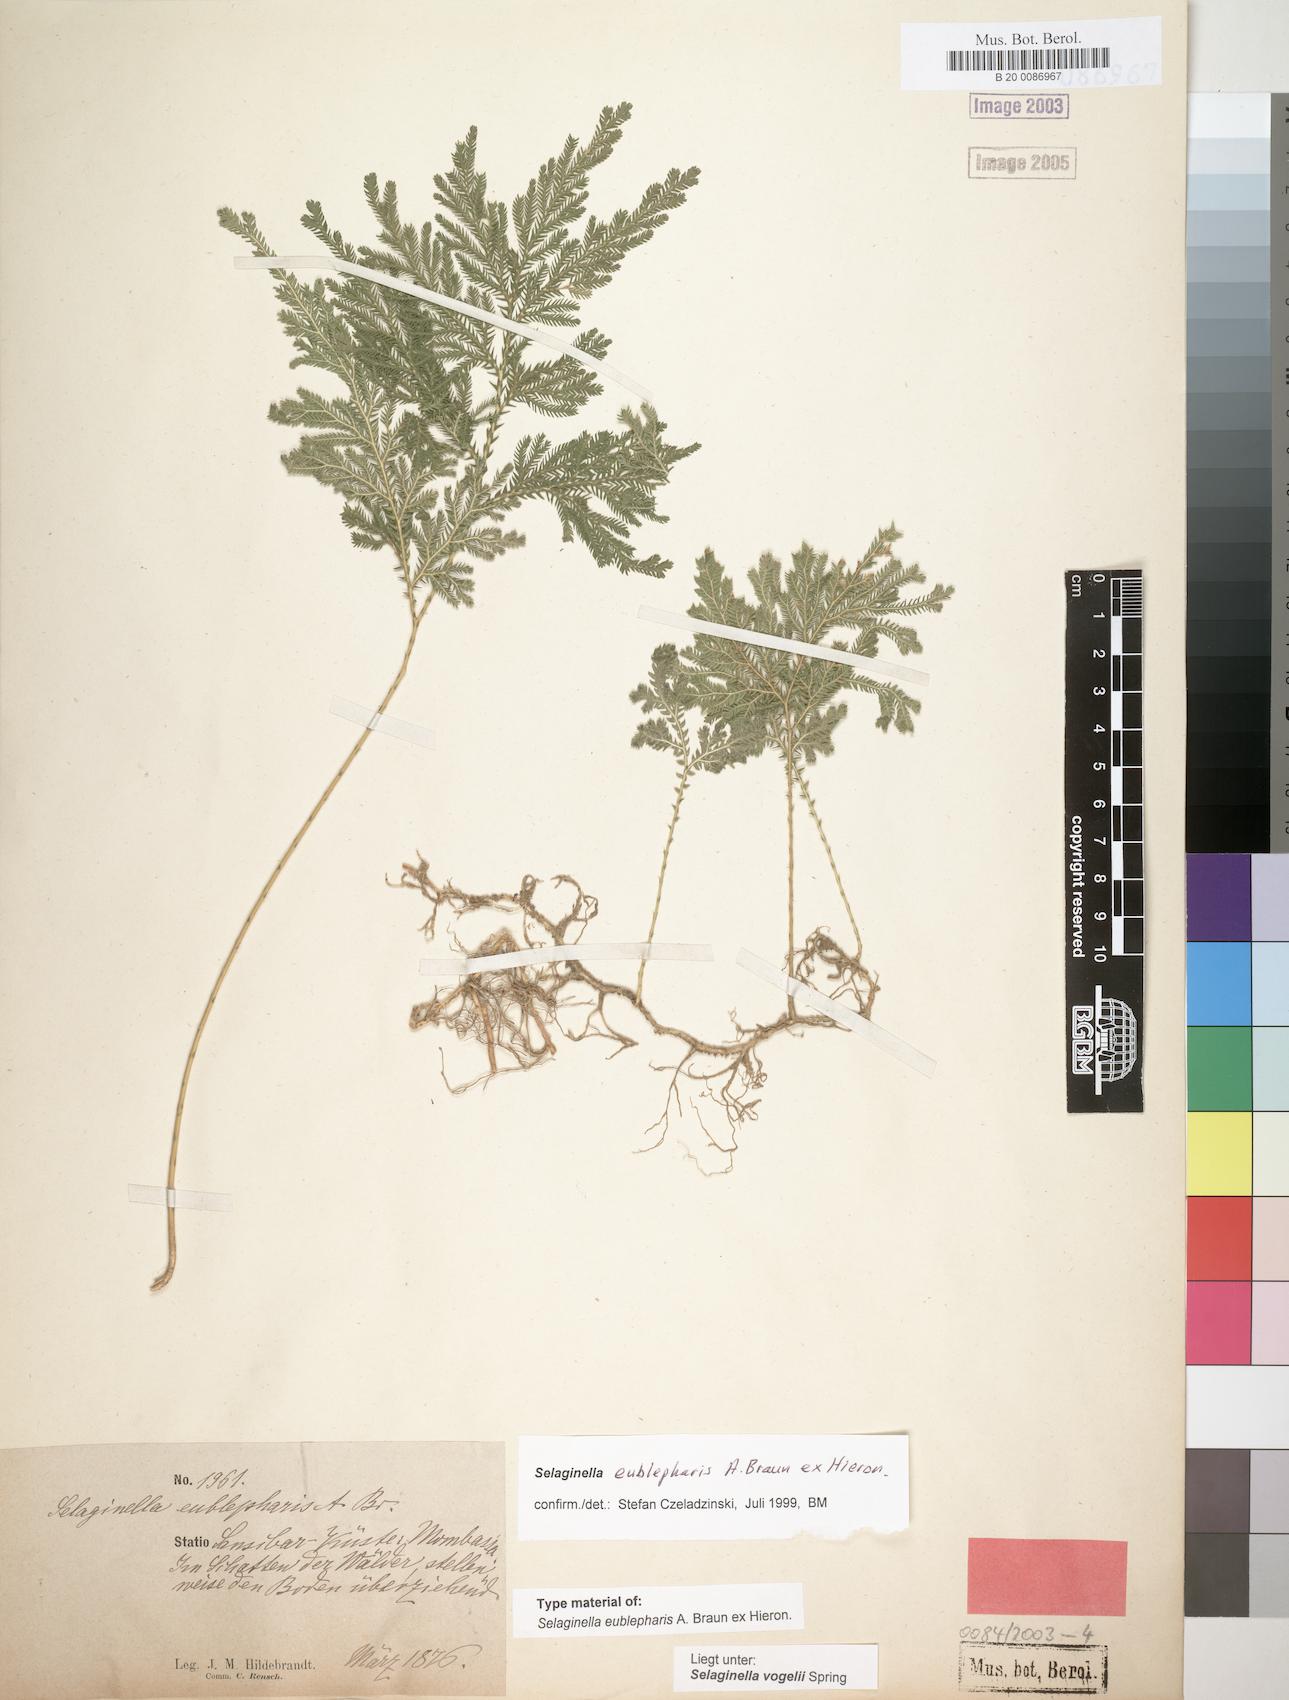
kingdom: Plantae
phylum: Tracheophyta
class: Lycopodiopsida
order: Selaginellales
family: Selaginellaceae
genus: Selaginella
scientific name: Selaginella eublepharis
